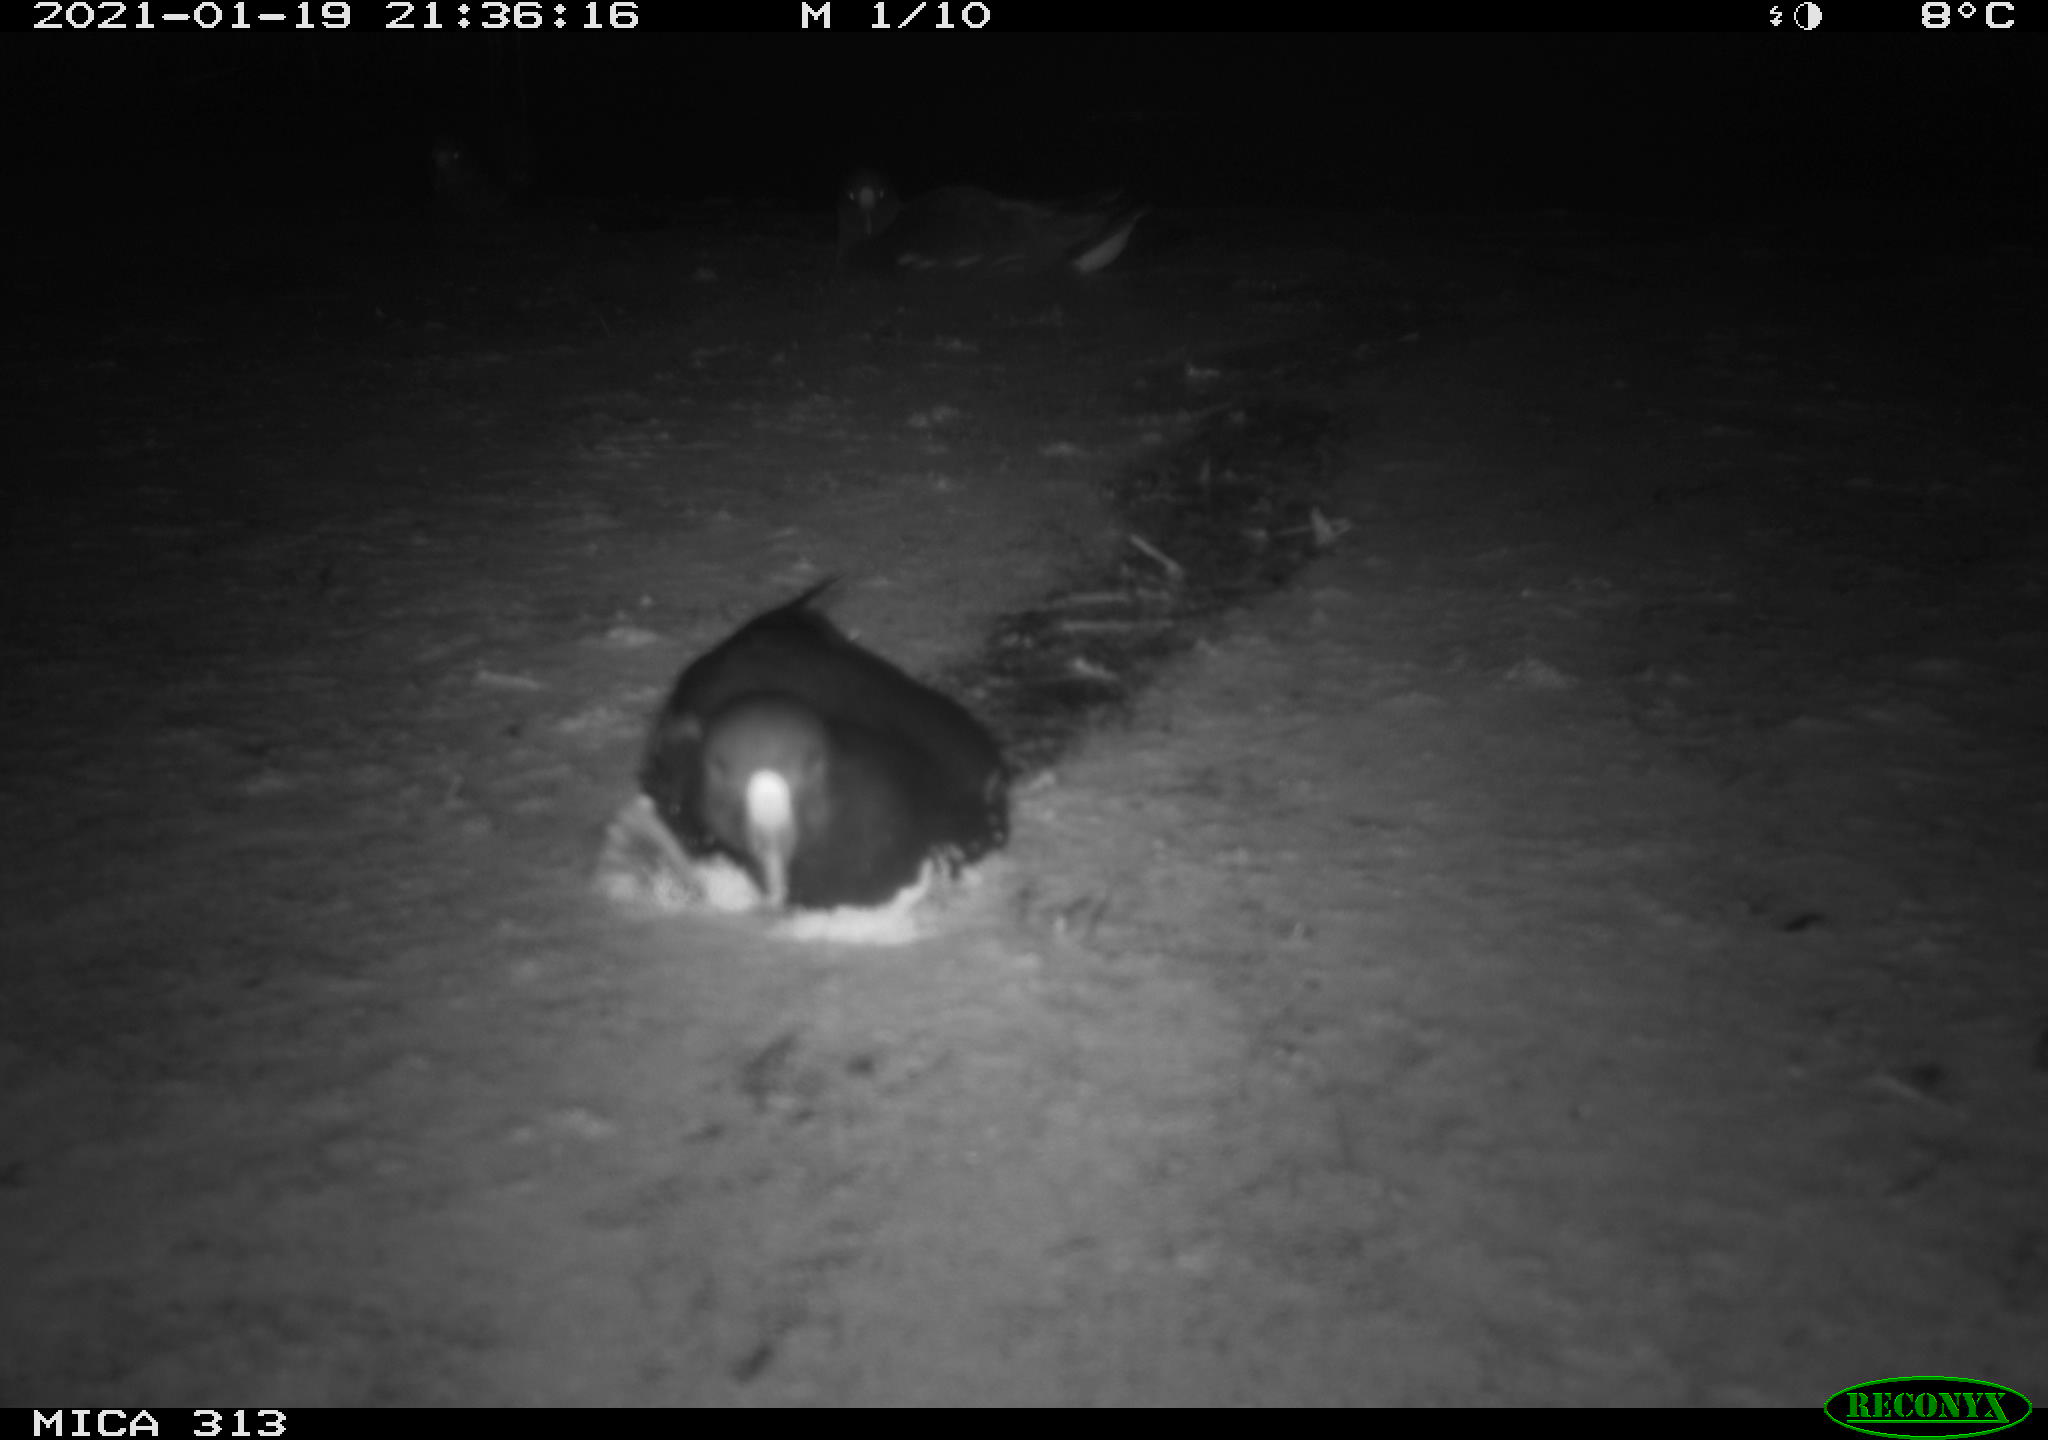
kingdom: Animalia
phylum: Chordata
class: Aves
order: Gruiformes
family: Rallidae
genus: Gallinula
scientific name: Gallinula chloropus
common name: Common moorhen
